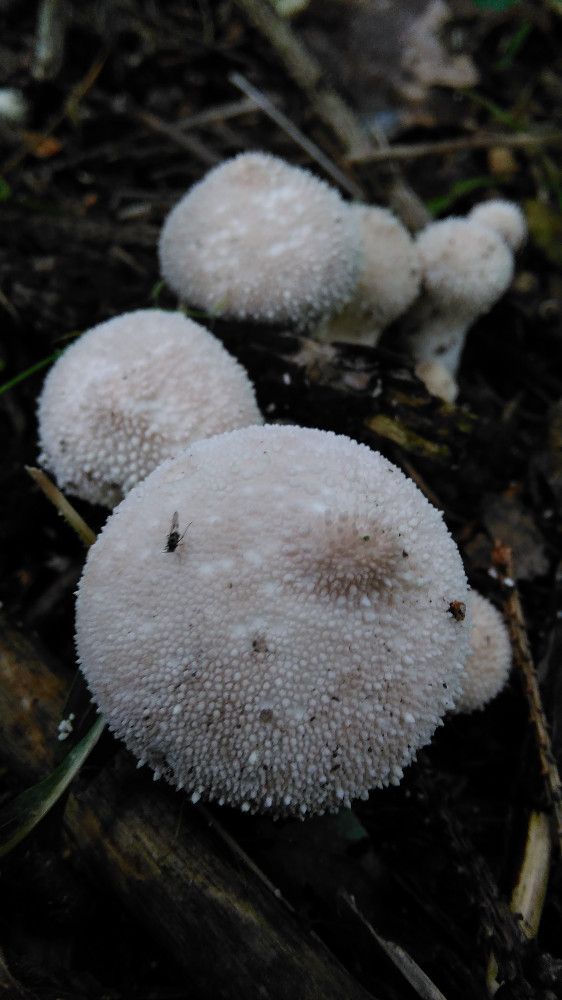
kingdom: Fungi
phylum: Basidiomycota
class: Agaricomycetes
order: Agaricales
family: Lycoperdaceae
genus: Lycoperdon
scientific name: Lycoperdon perlatum
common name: krystal-støvbold
